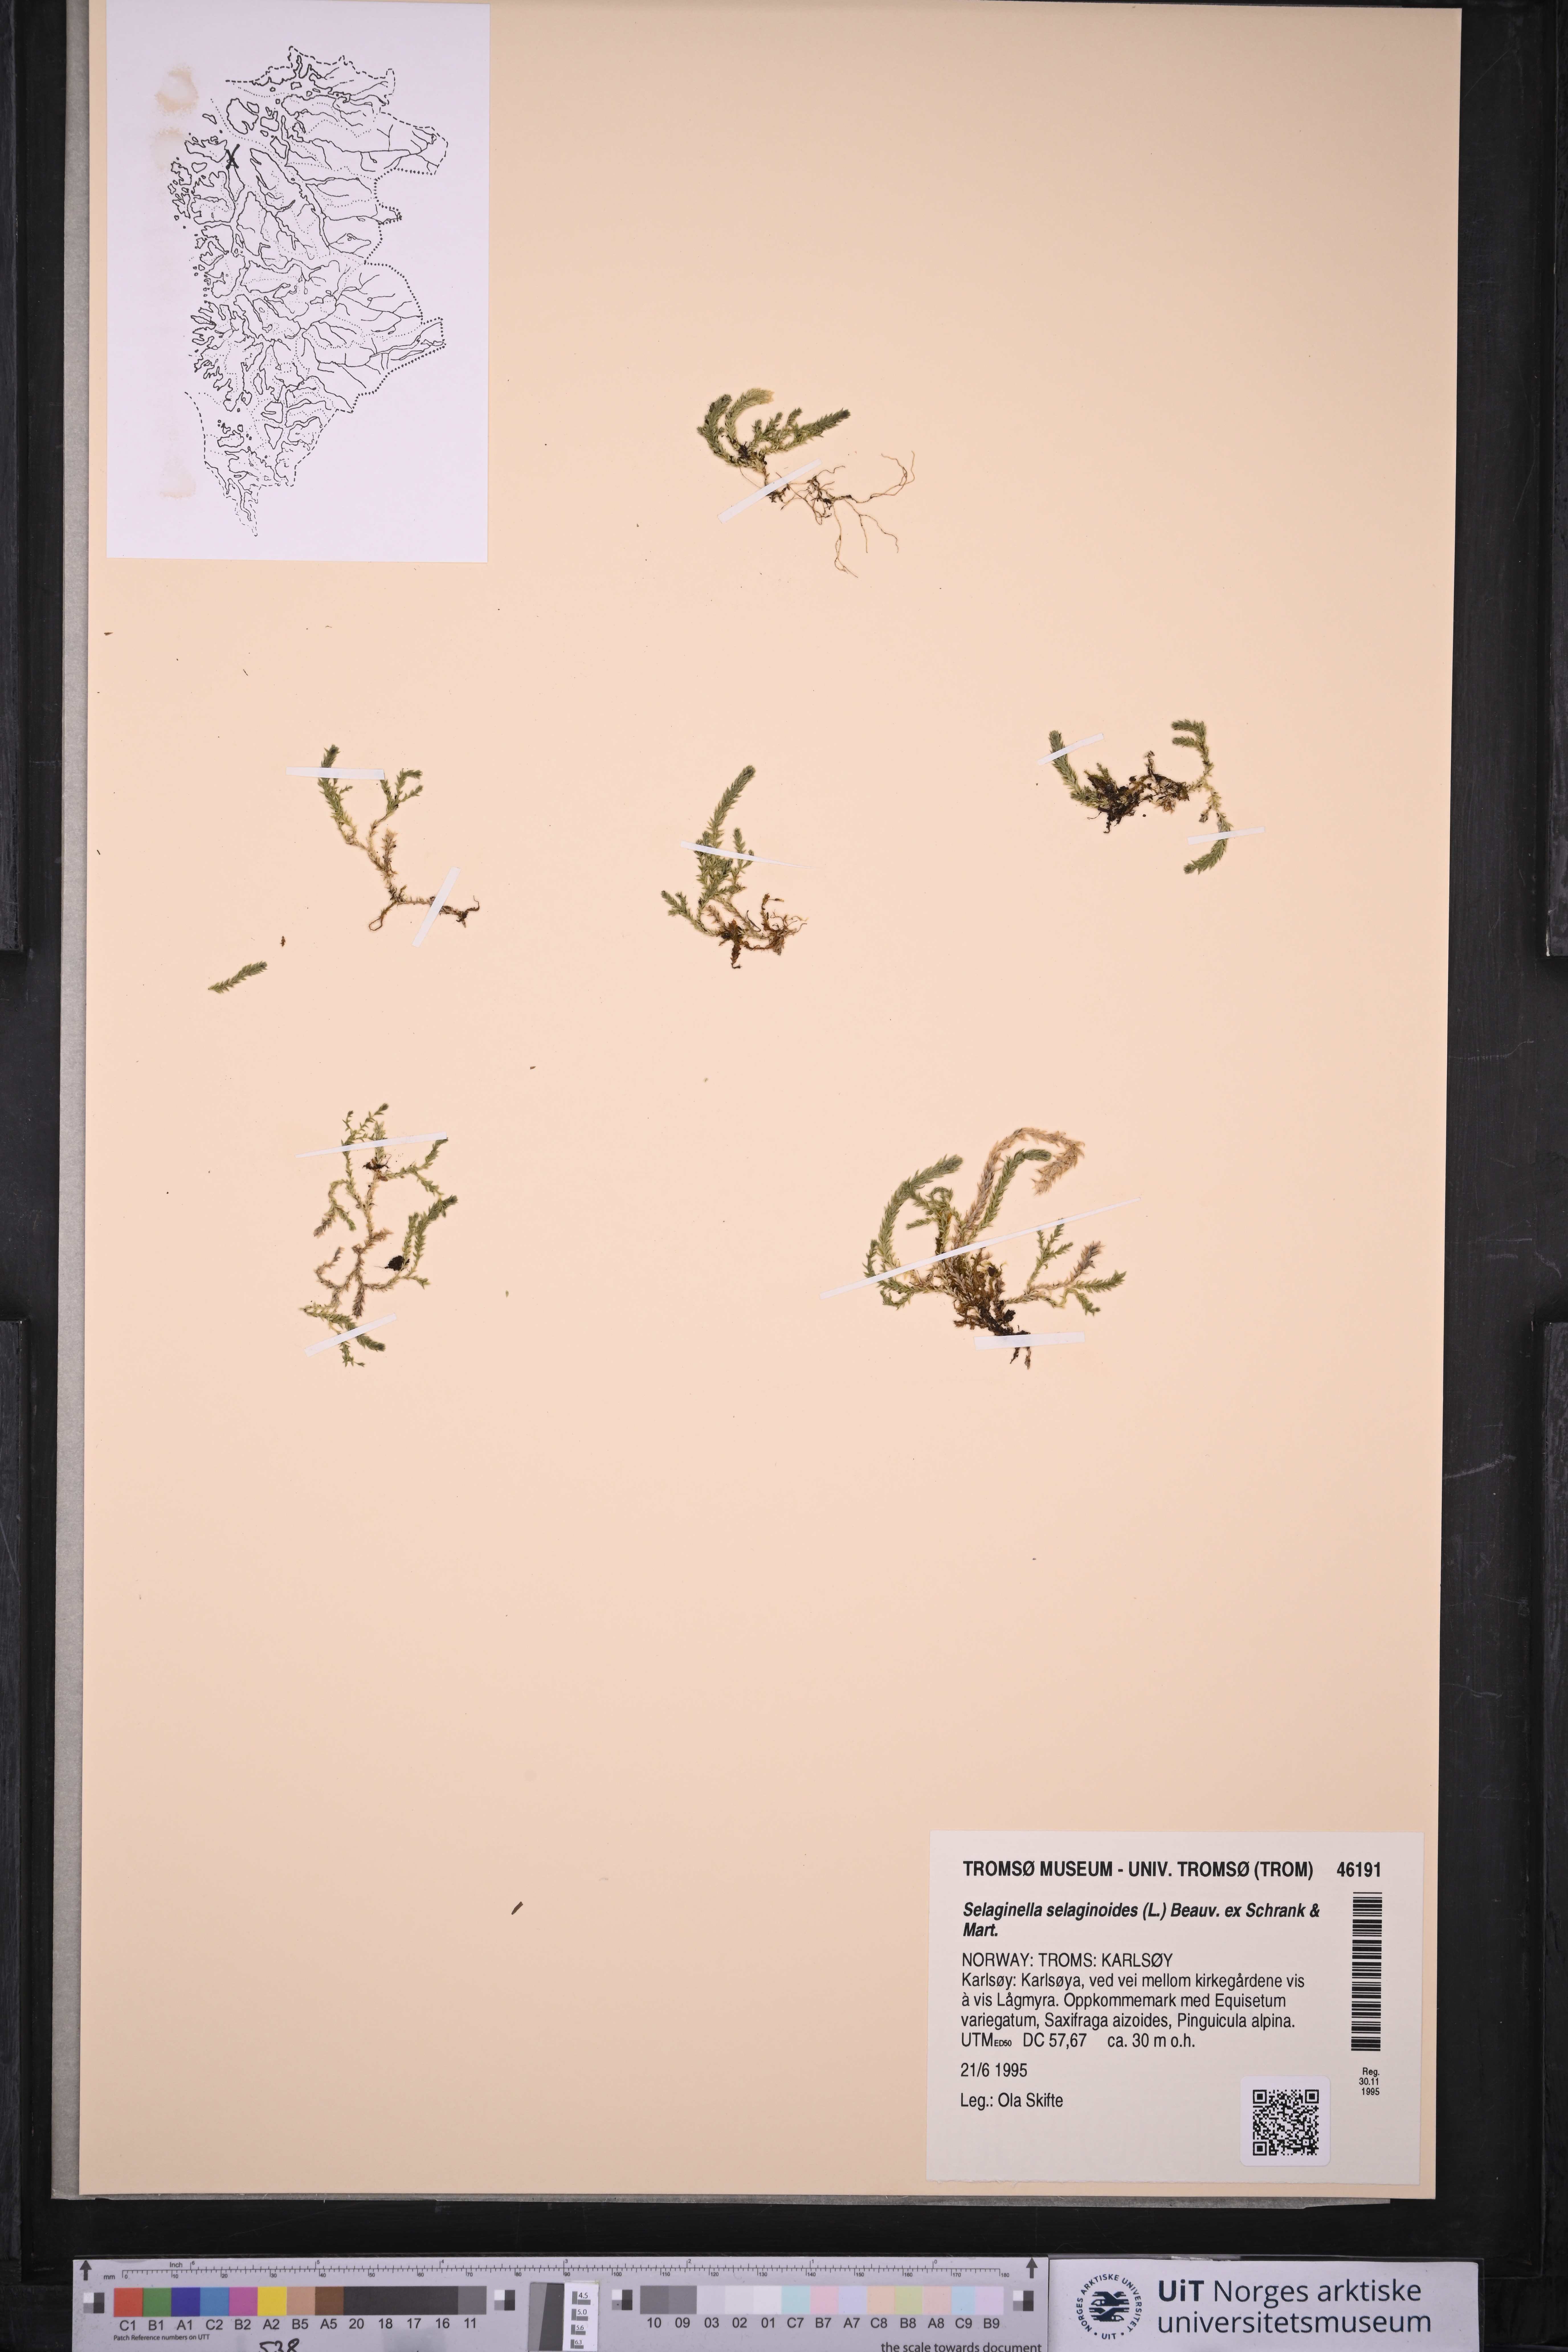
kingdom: Plantae
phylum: Tracheophyta
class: Lycopodiopsida
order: Selaginellales
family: Selaginellaceae
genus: Selaginella
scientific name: Selaginella selaginoides
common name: Prickly mountain-moss
